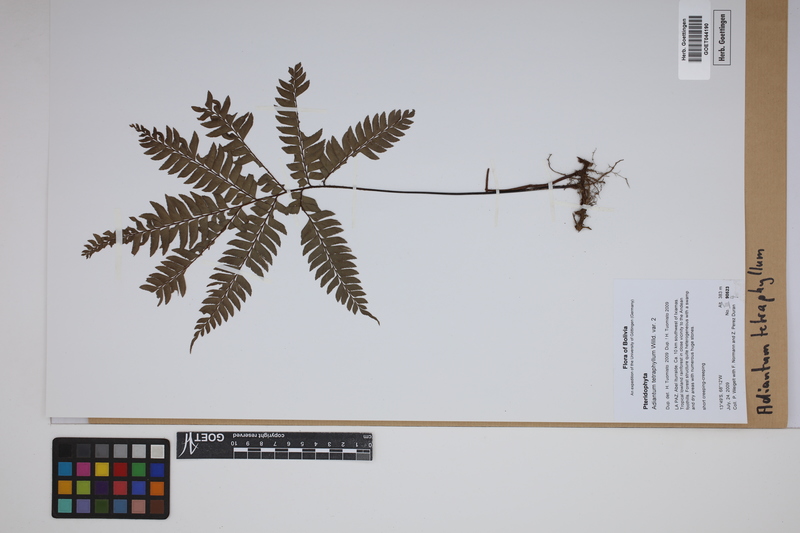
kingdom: Plantae
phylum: Tracheophyta
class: Polypodiopsida
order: Polypodiales
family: Pteridaceae
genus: Adiantum
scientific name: Adiantum tetraphyllum
